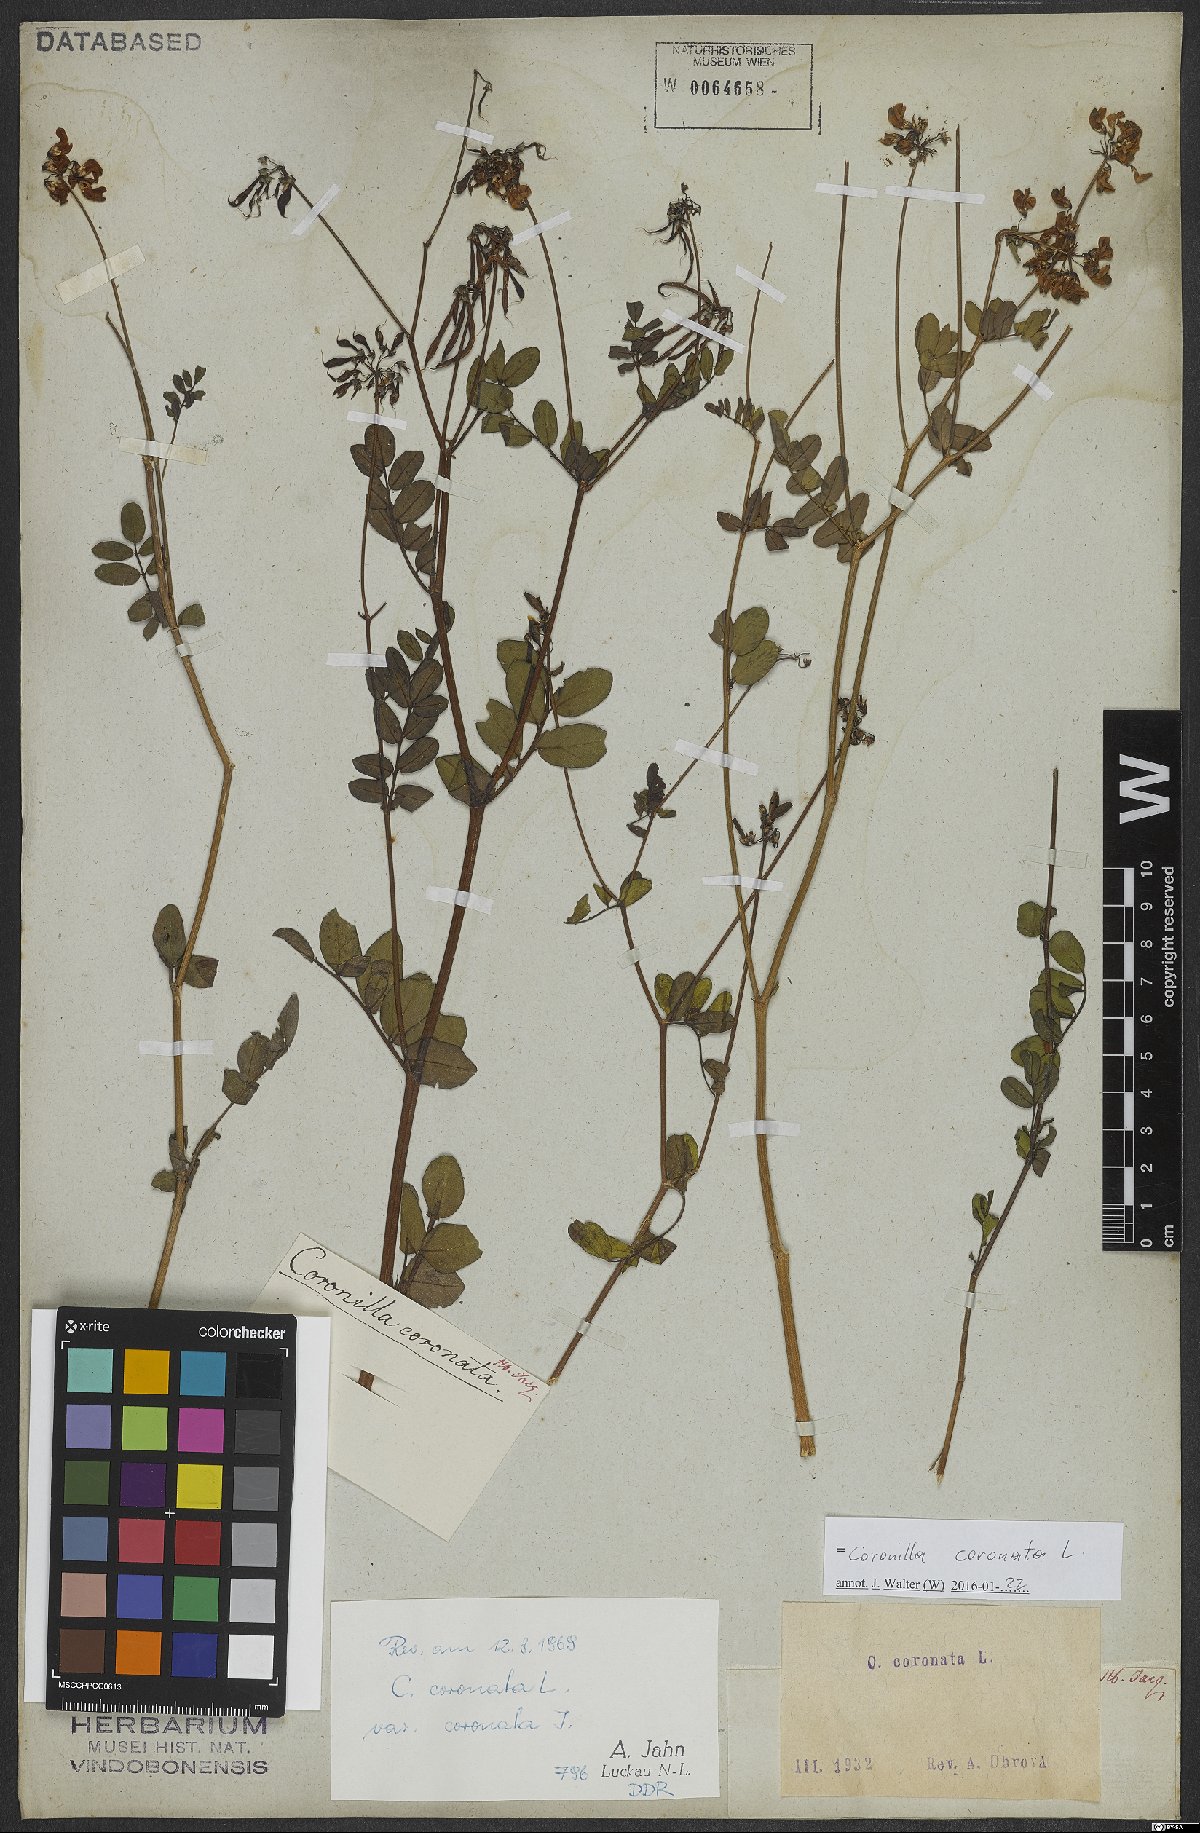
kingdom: Plantae
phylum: Tracheophyta
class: Magnoliopsida
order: Fabales
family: Fabaceae
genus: Coronilla
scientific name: Coronilla coronata
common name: Scorpion-vetch
